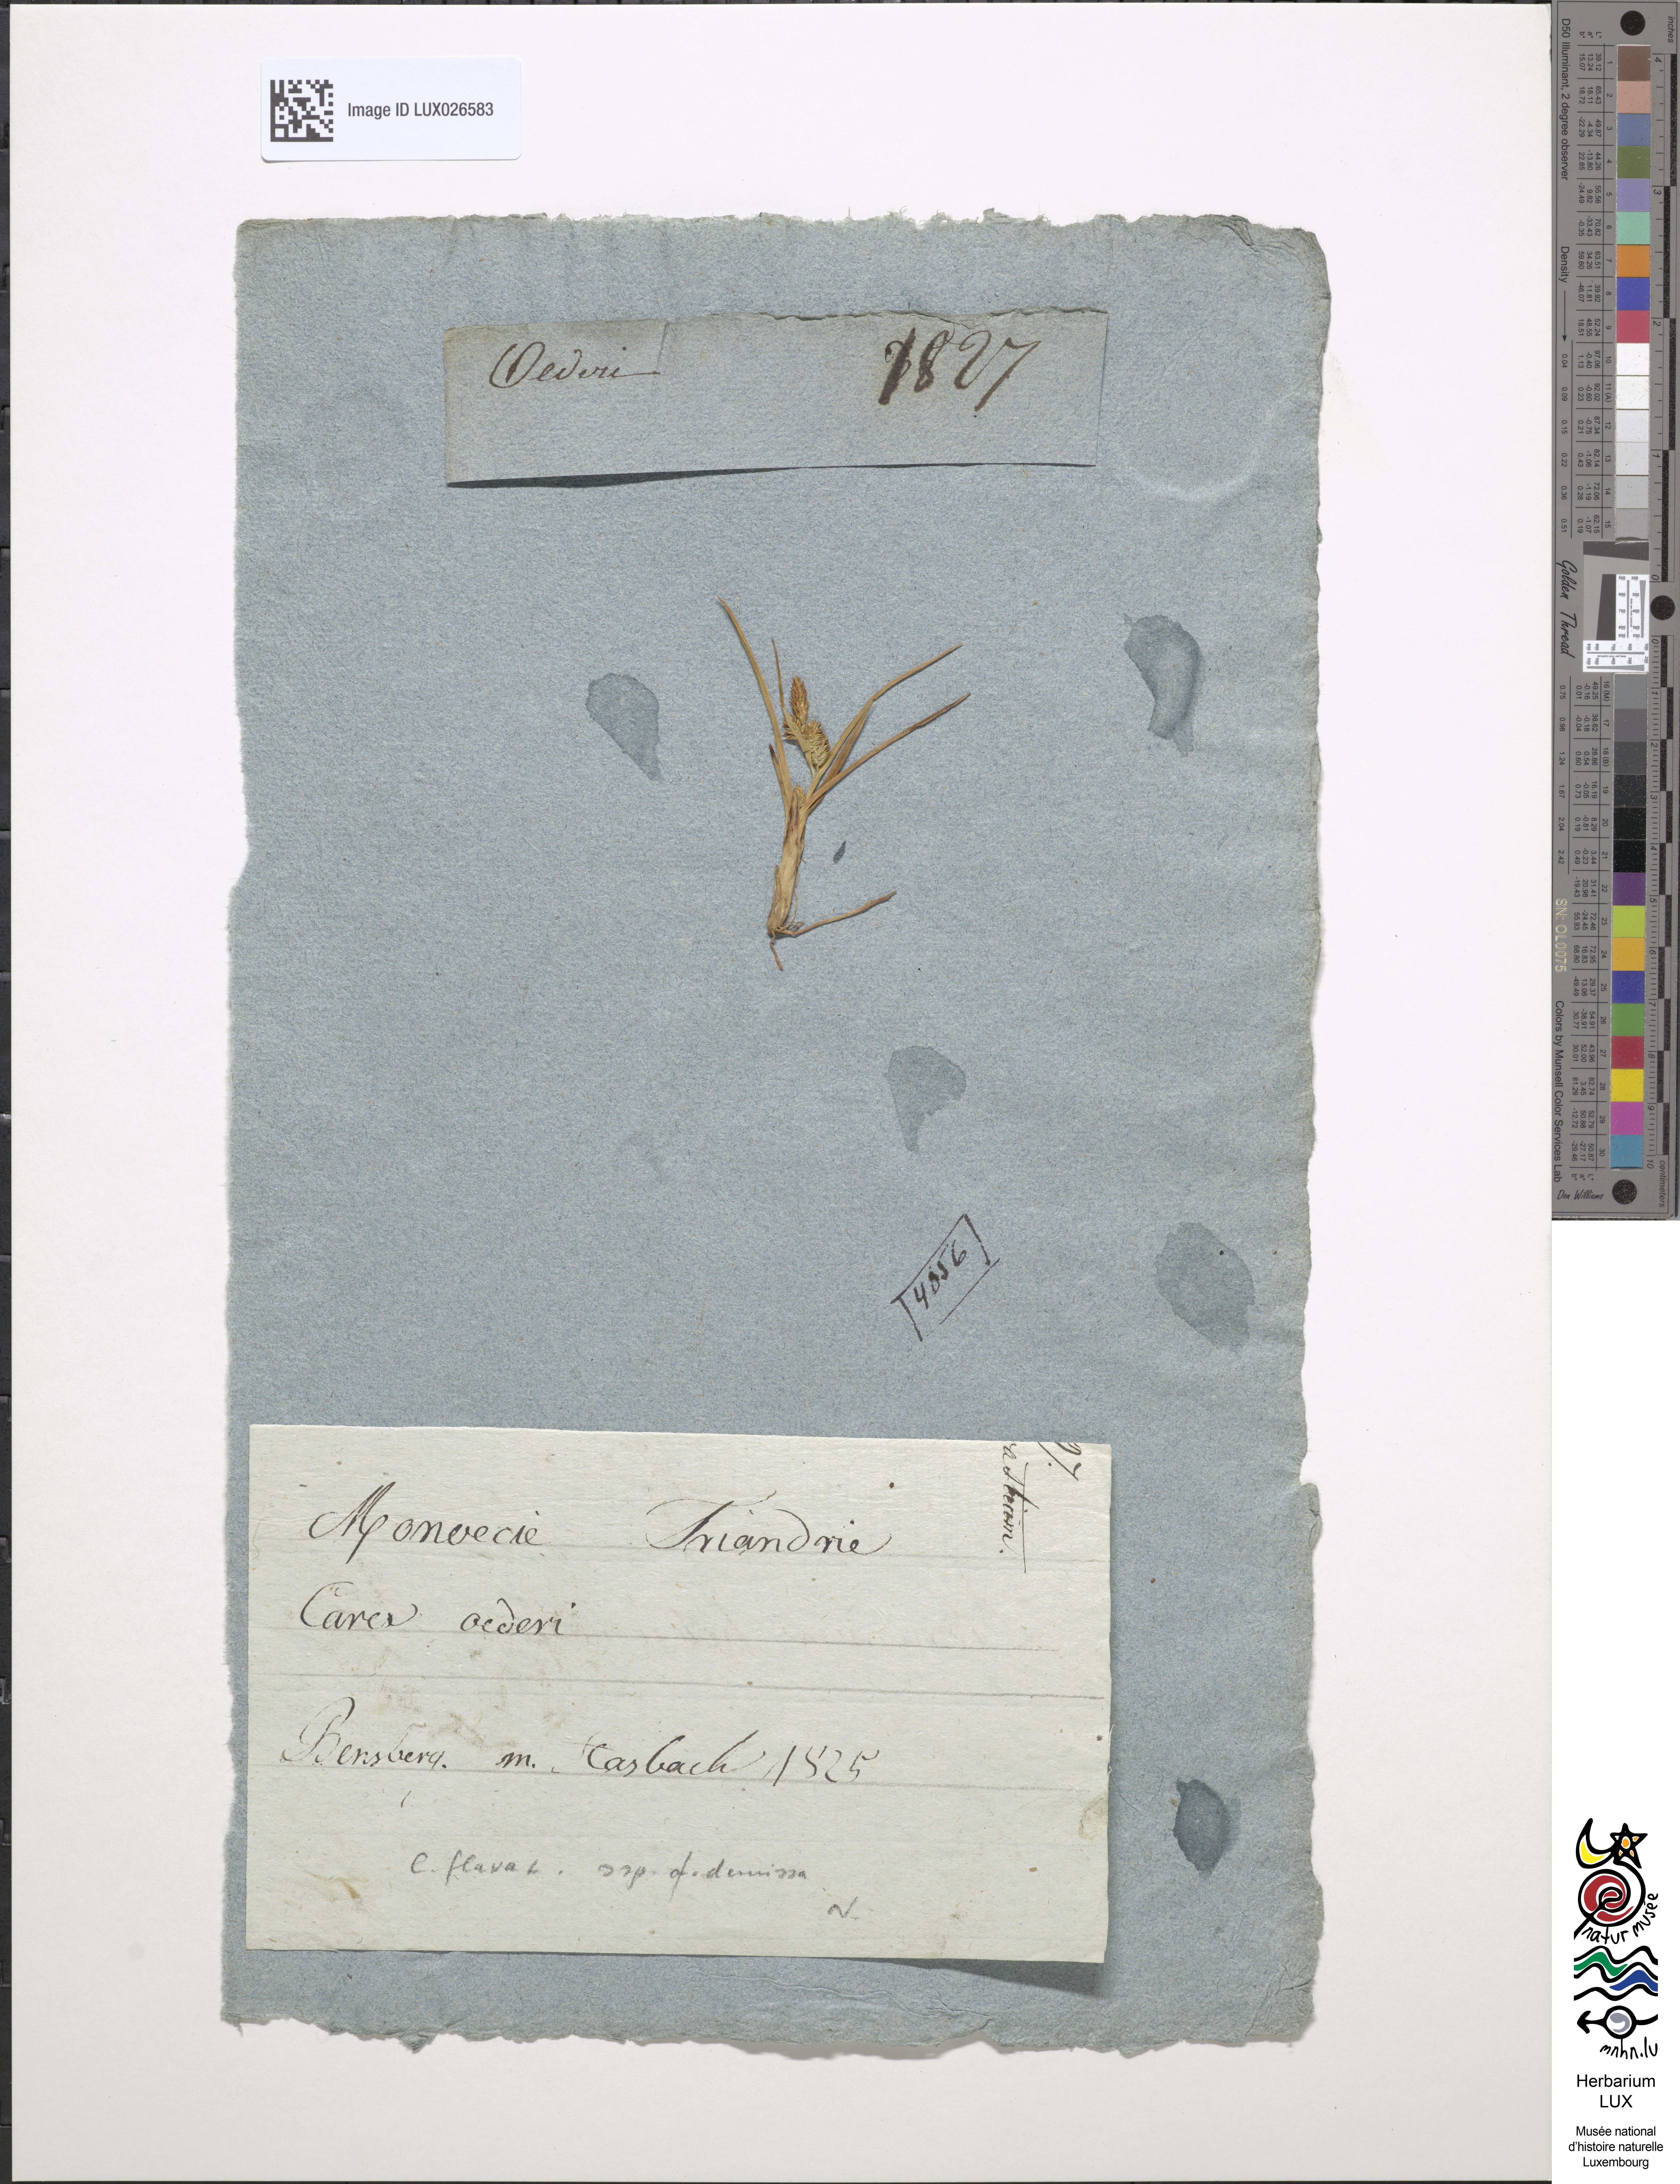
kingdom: Plantae
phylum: Tracheophyta
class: Liliopsida
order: Poales
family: Cyperaceae
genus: Carex
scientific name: Carex demissa
